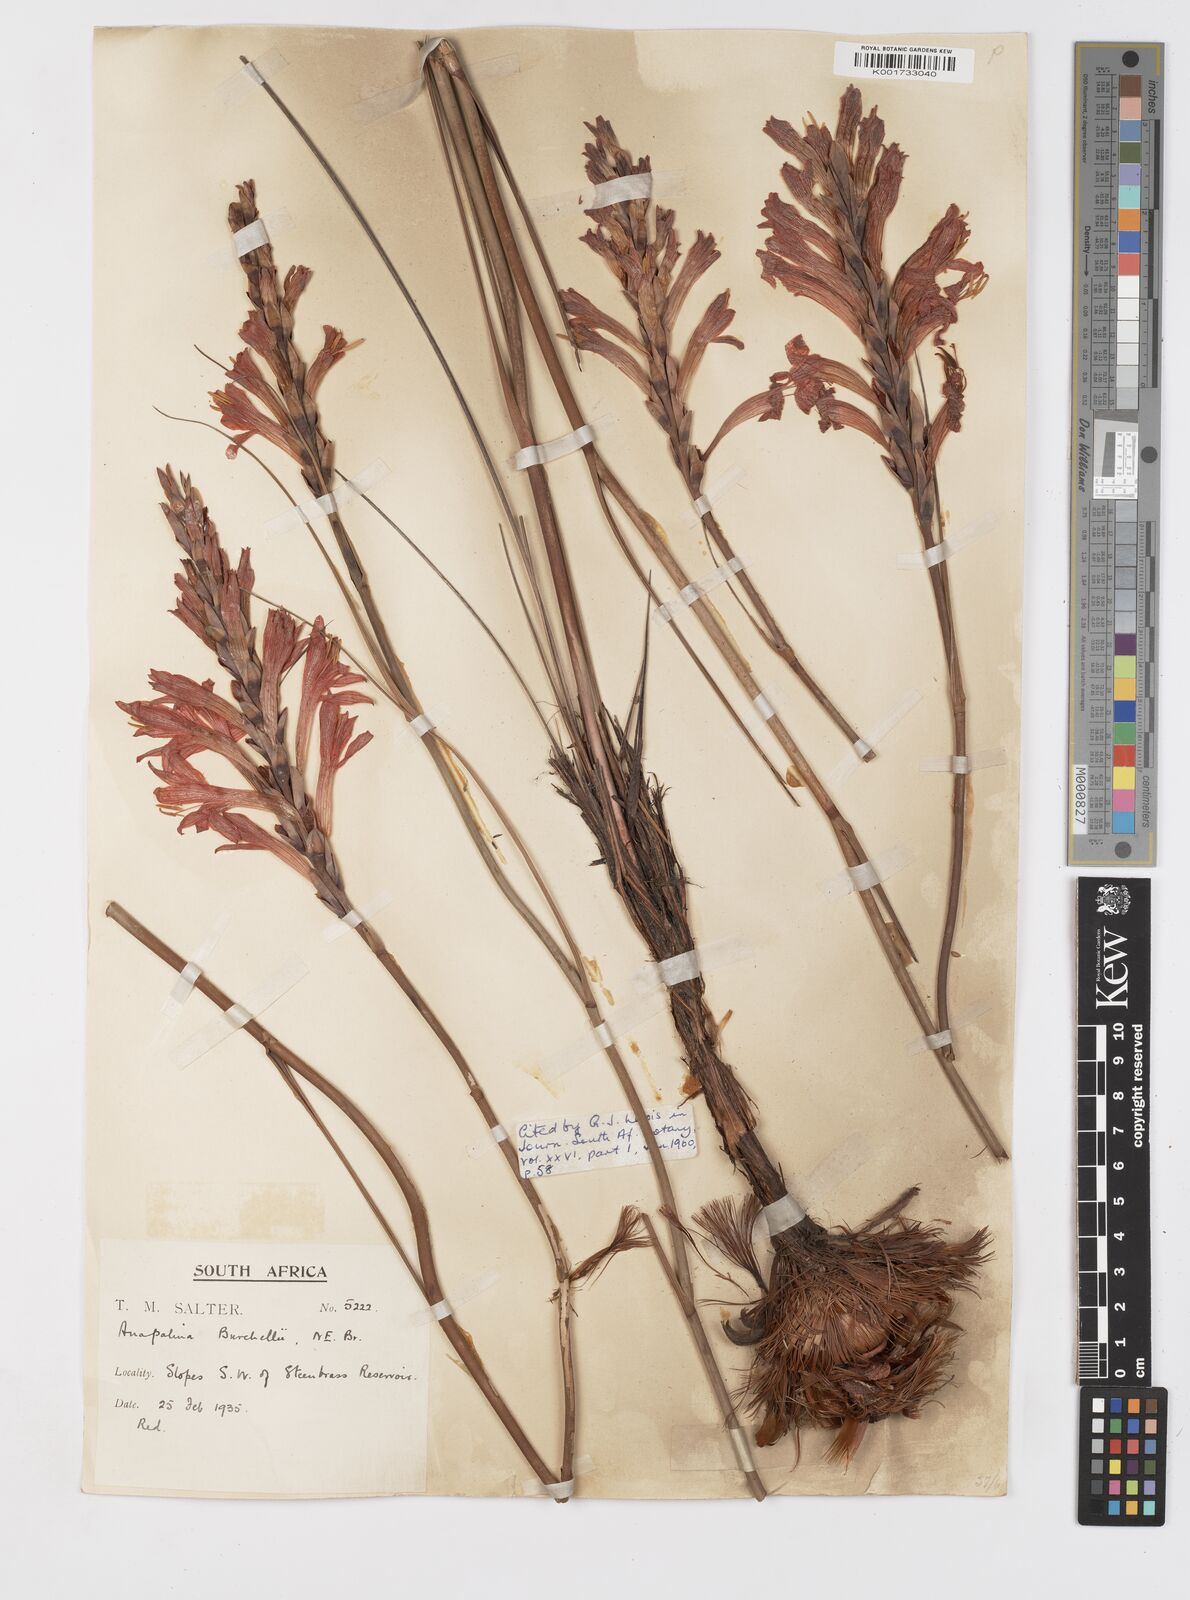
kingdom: Plantae
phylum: Tracheophyta
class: Liliopsida
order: Asparagales
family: Iridaceae
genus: Tritoniopsis
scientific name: Tritoniopsis triticea
